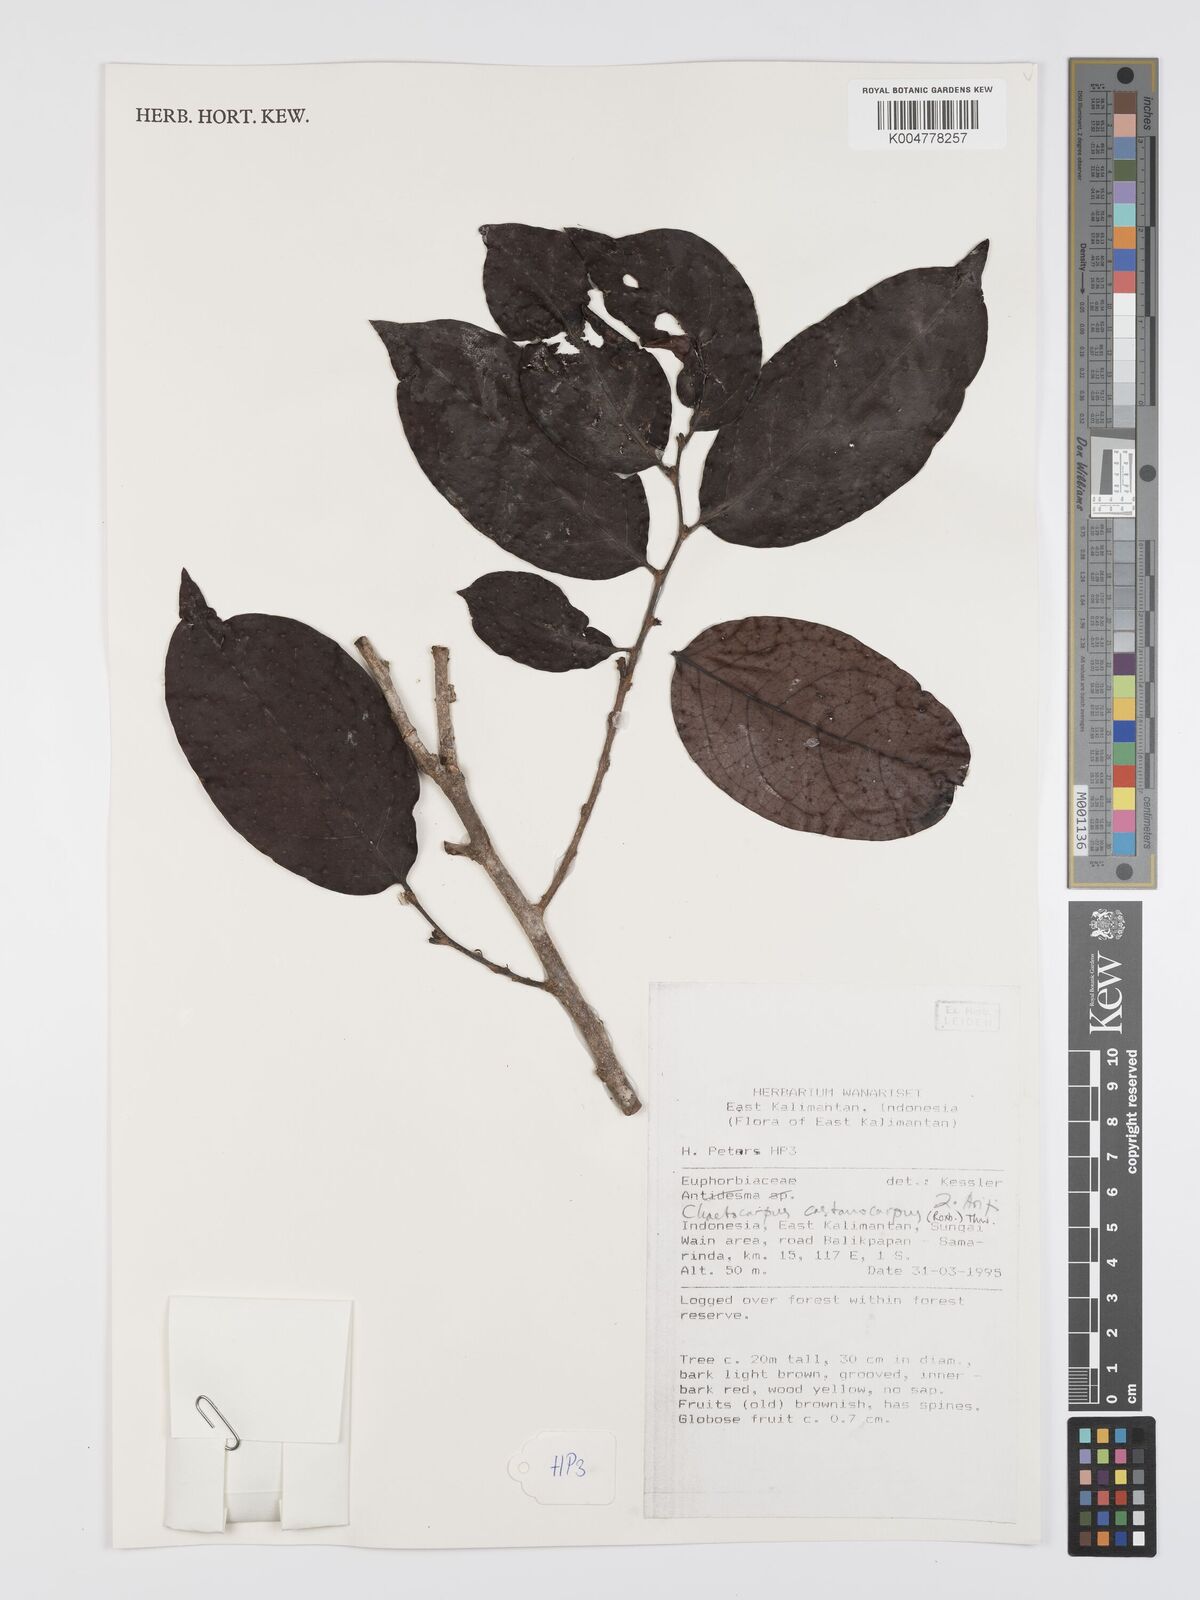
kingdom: Plantae
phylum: Tracheophyta
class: Magnoliopsida
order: Malpighiales
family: Peraceae
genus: Chaetocarpus
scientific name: Chaetocarpus castanocarpus
